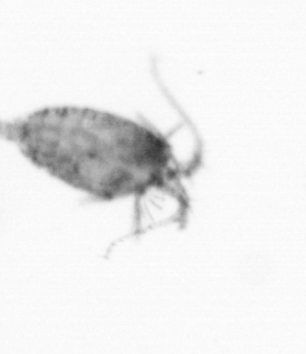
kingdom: Animalia
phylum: Arthropoda
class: Copepoda
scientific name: Copepoda
